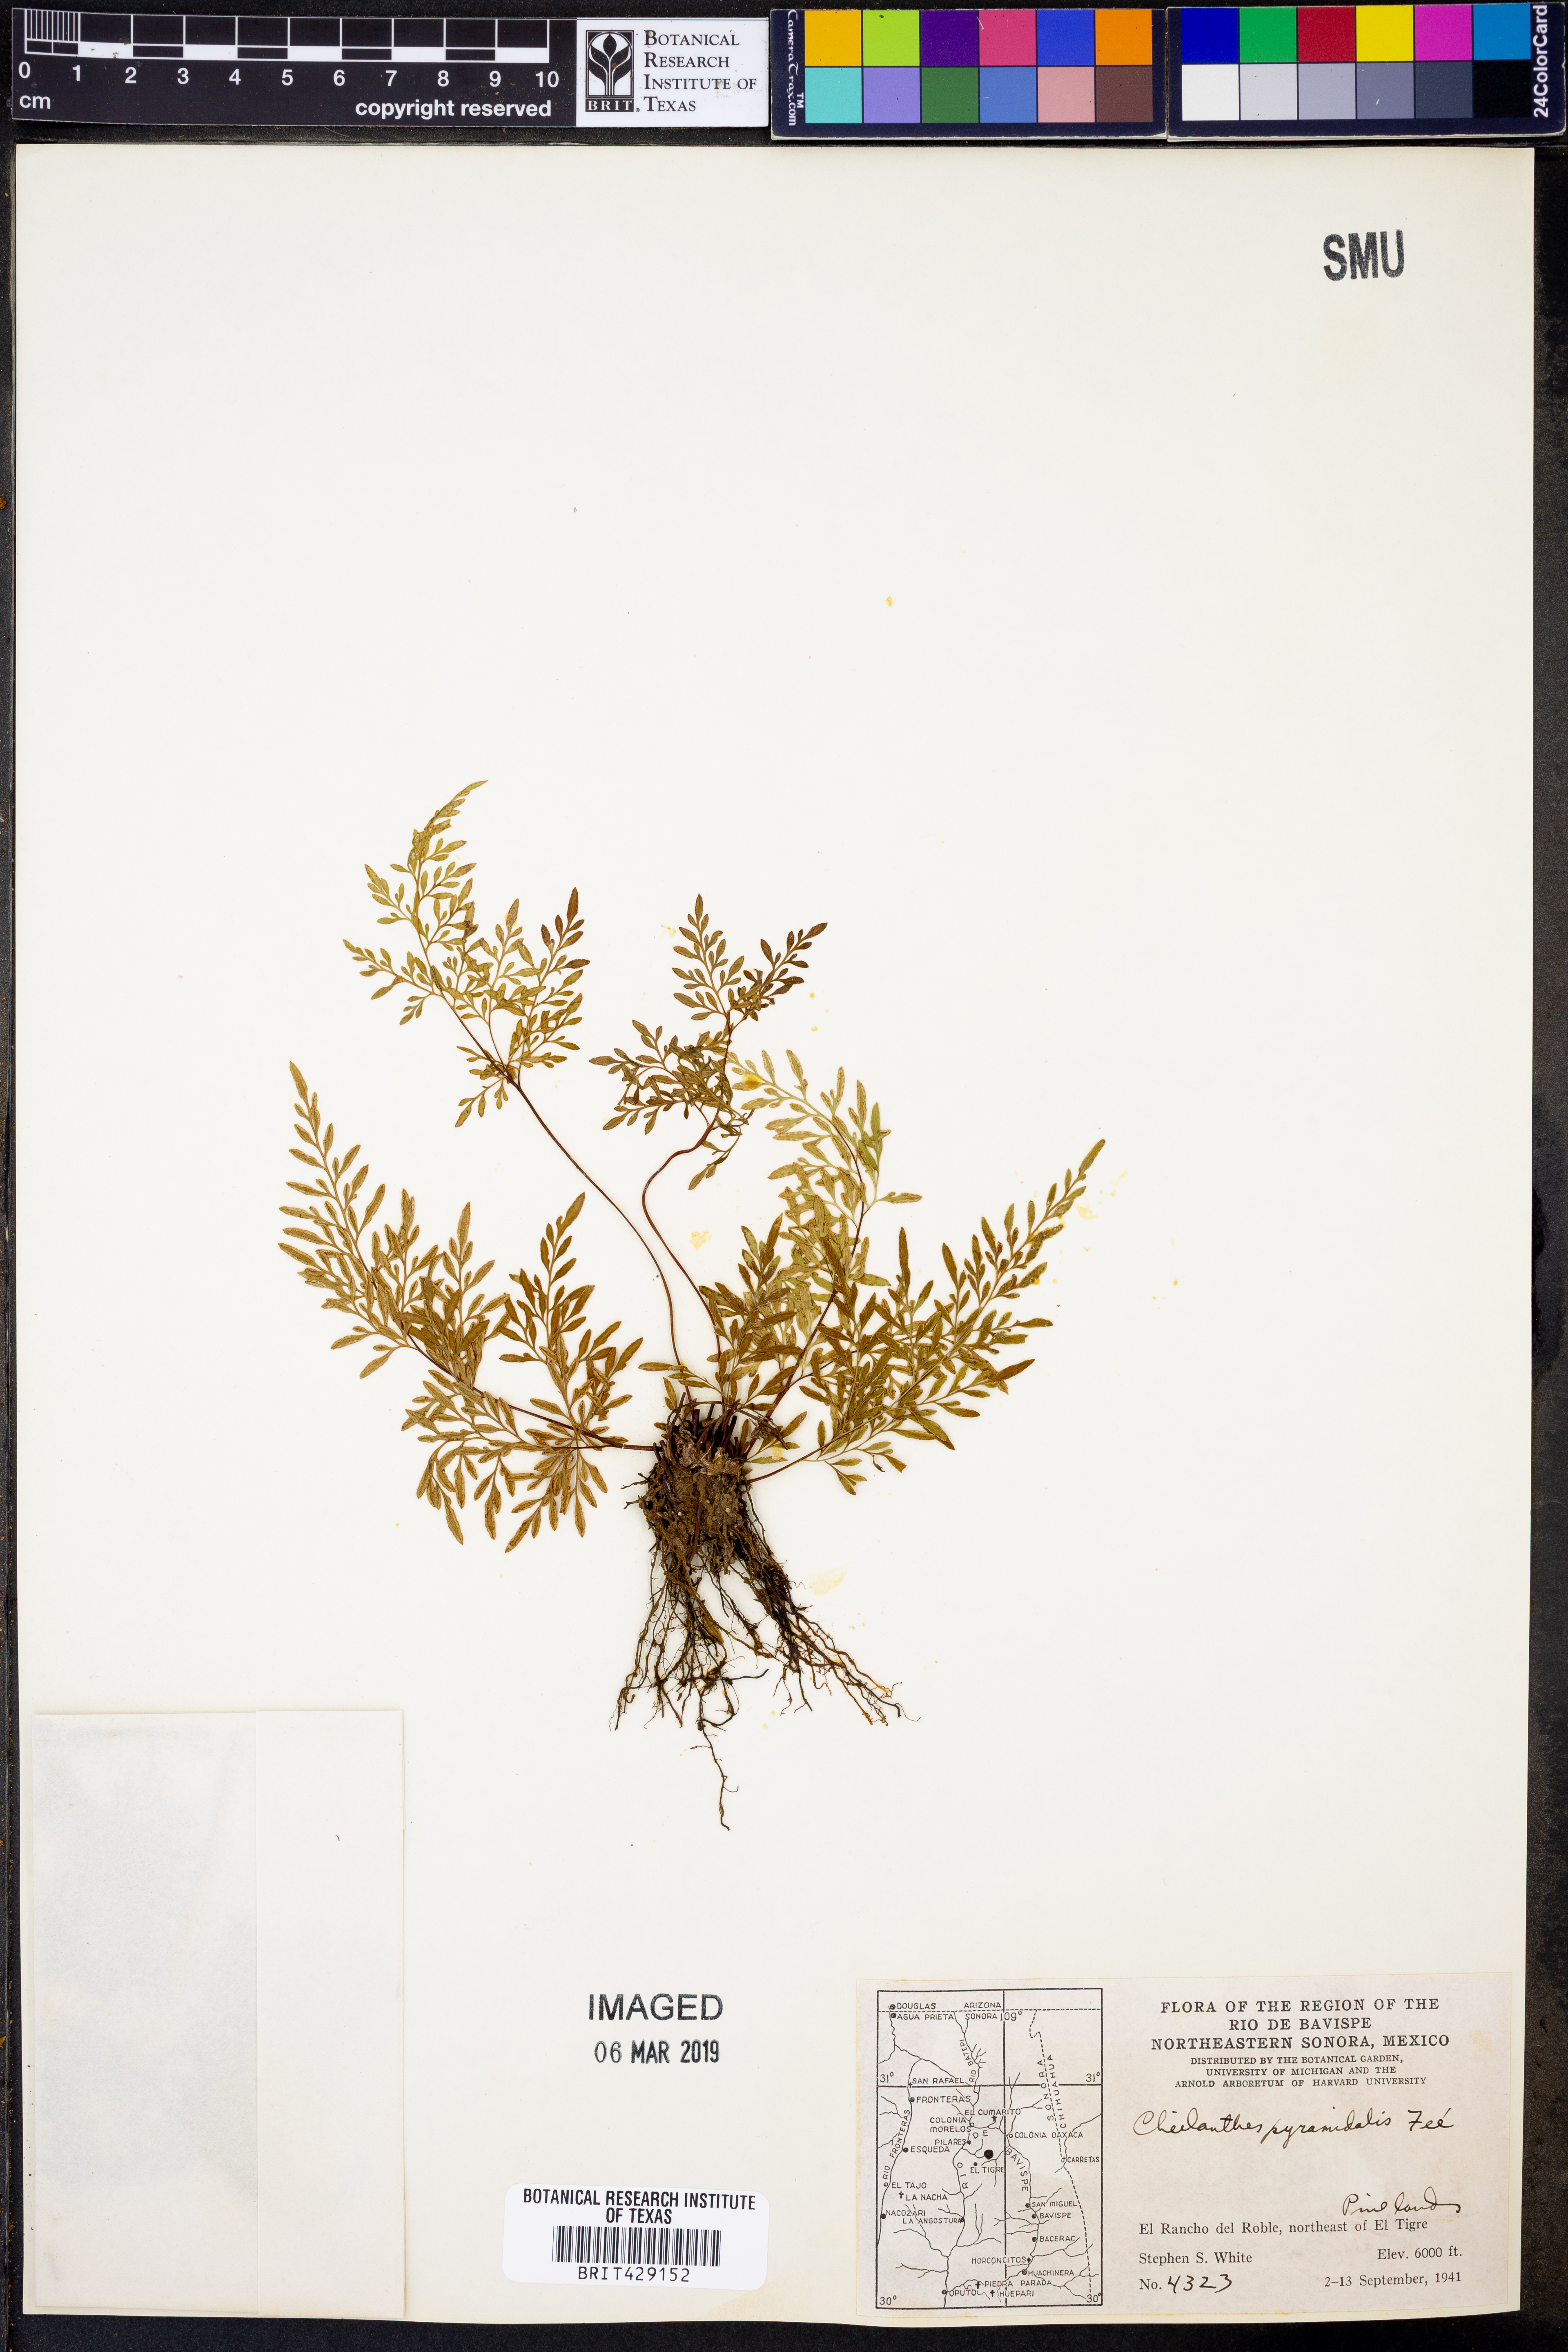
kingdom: Plantae
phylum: Tracheophyta
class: Polypodiopsida
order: Polypodiales
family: Pteridaceae
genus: Gaga
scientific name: Gaga hirsuta
